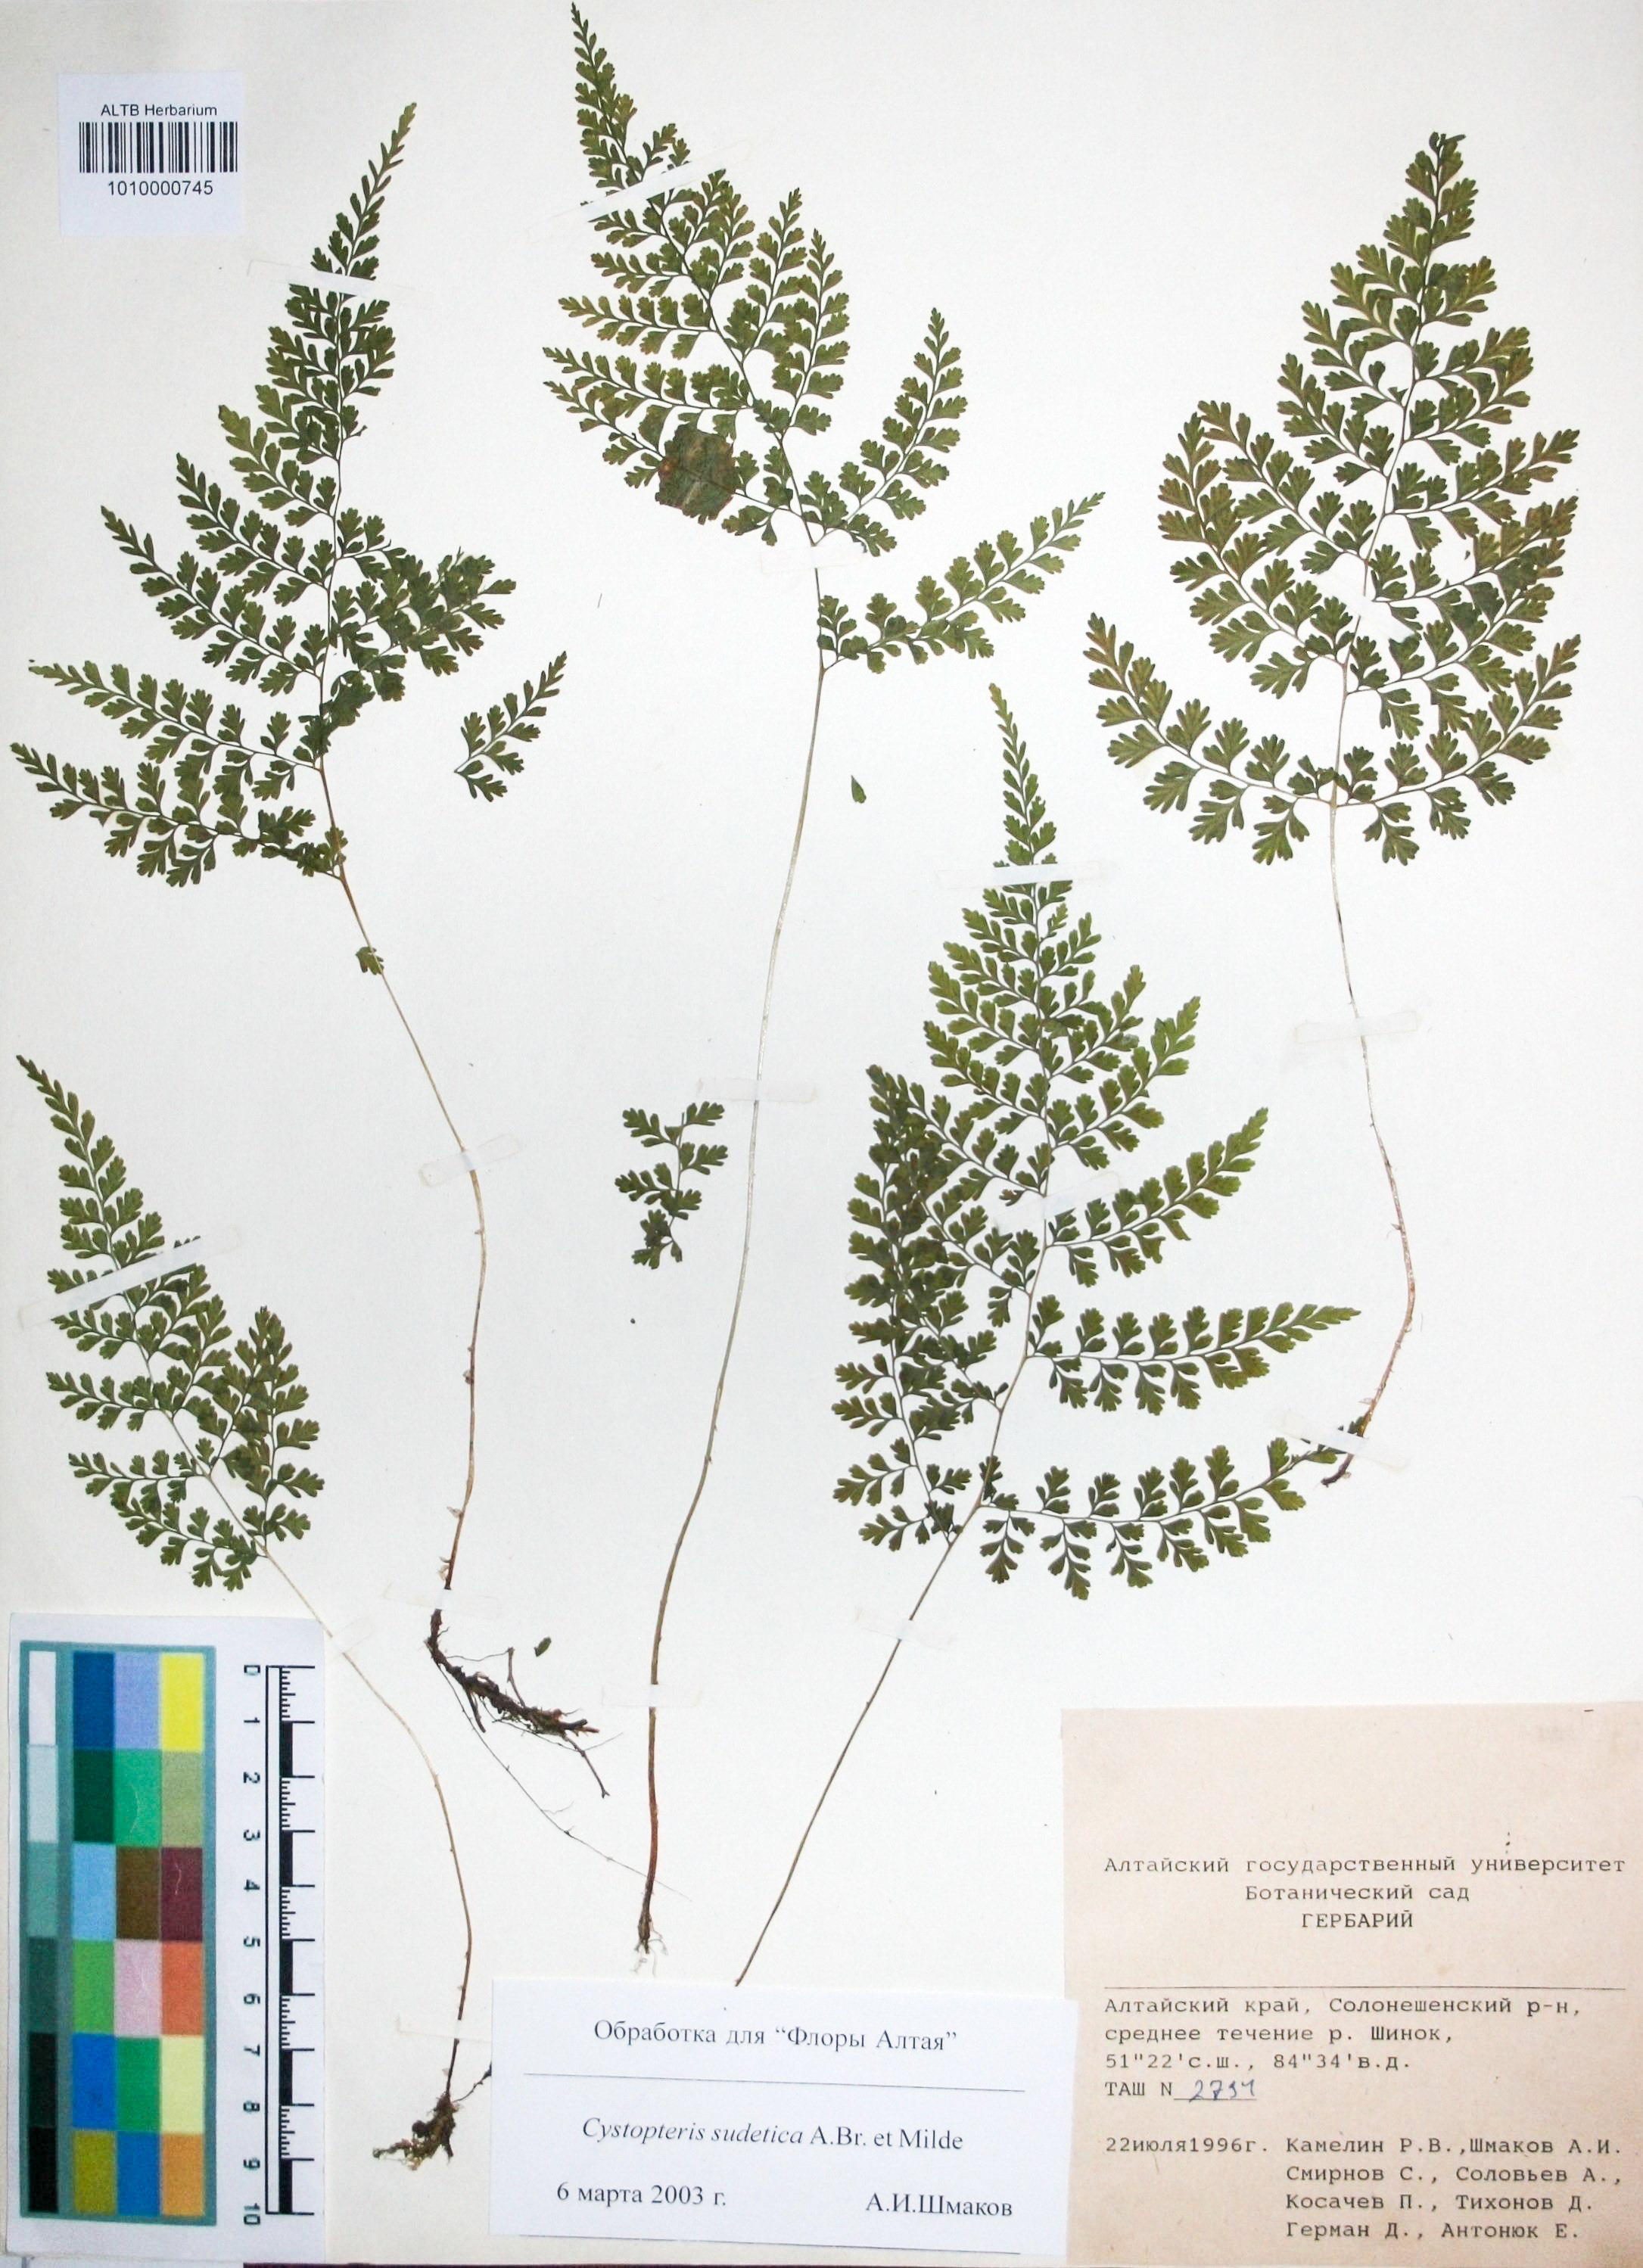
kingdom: Plantae
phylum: Tracheophyta
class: Polypodiopsida
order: Polypodiales
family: Cystopteridaceae
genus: Cystopteris
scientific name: Cystopteris sudetica
